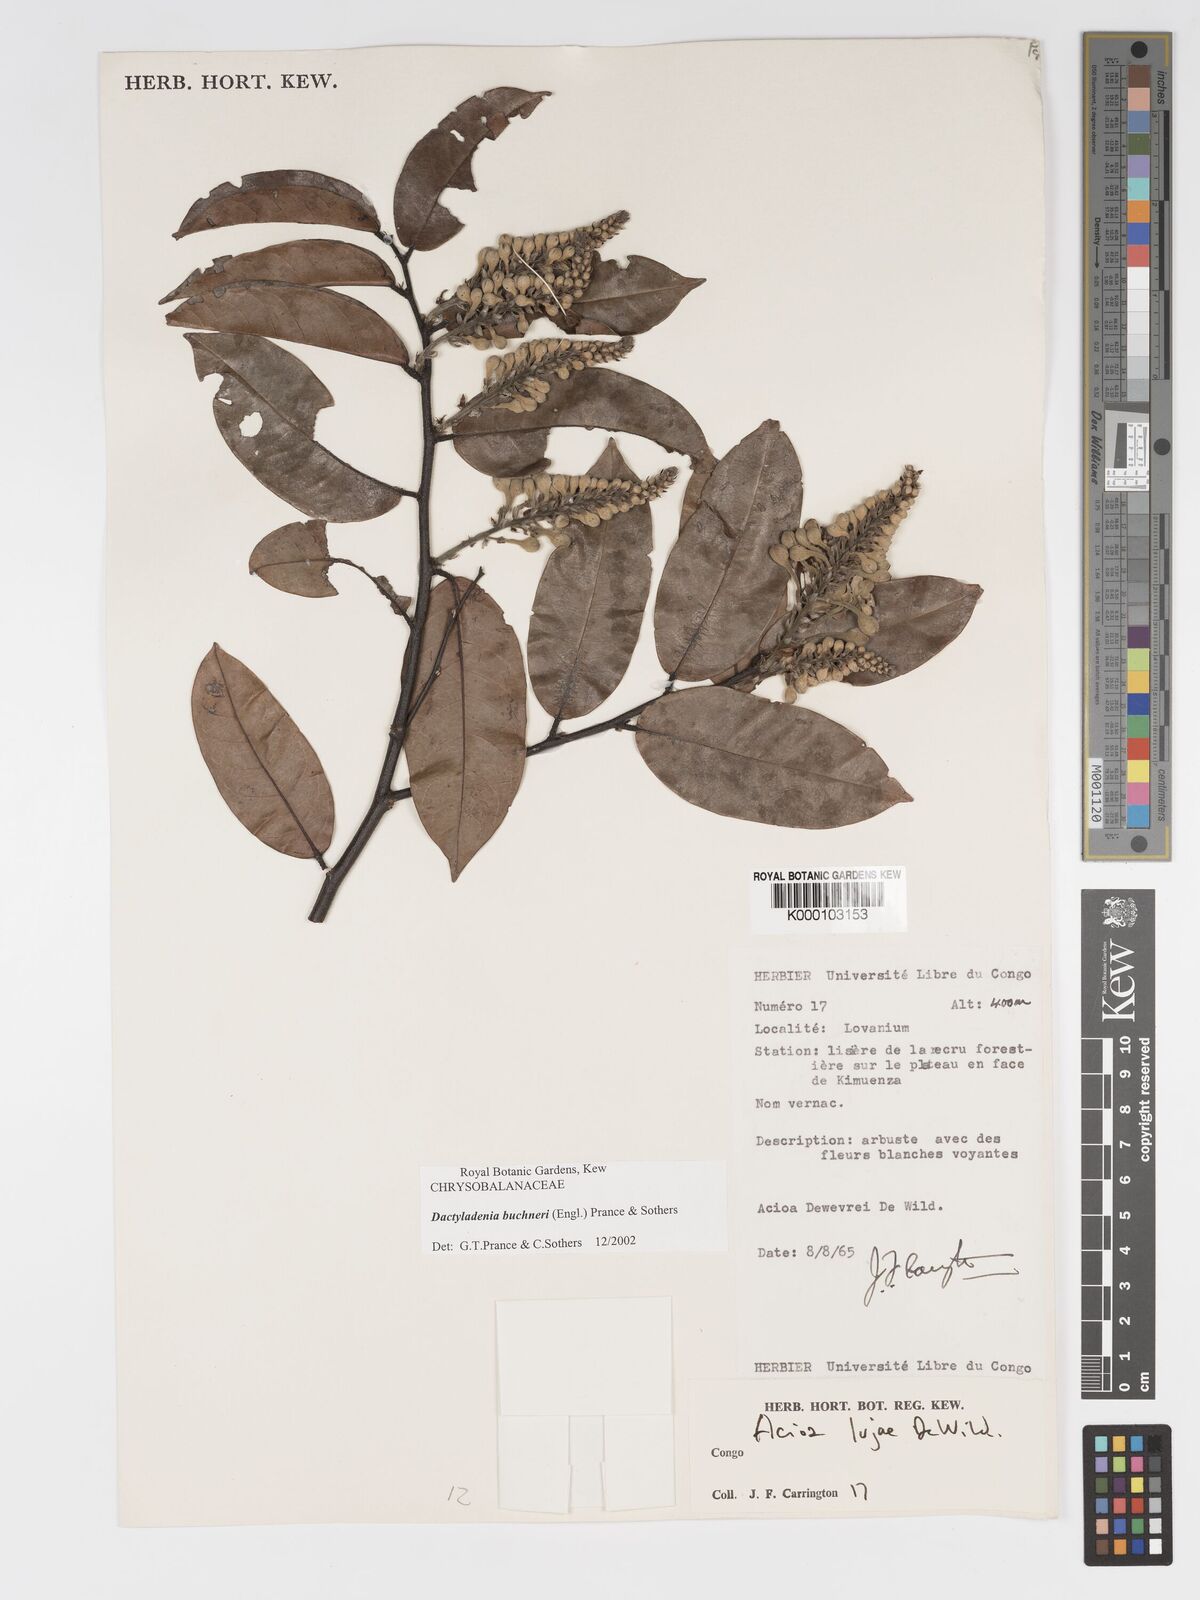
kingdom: Plantae
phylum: Tracheophyta
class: Magnoliopsida
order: Malpighiales
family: Chrysobalanaceae
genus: Dactyladenia
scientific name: Dactyladenia buchneri
